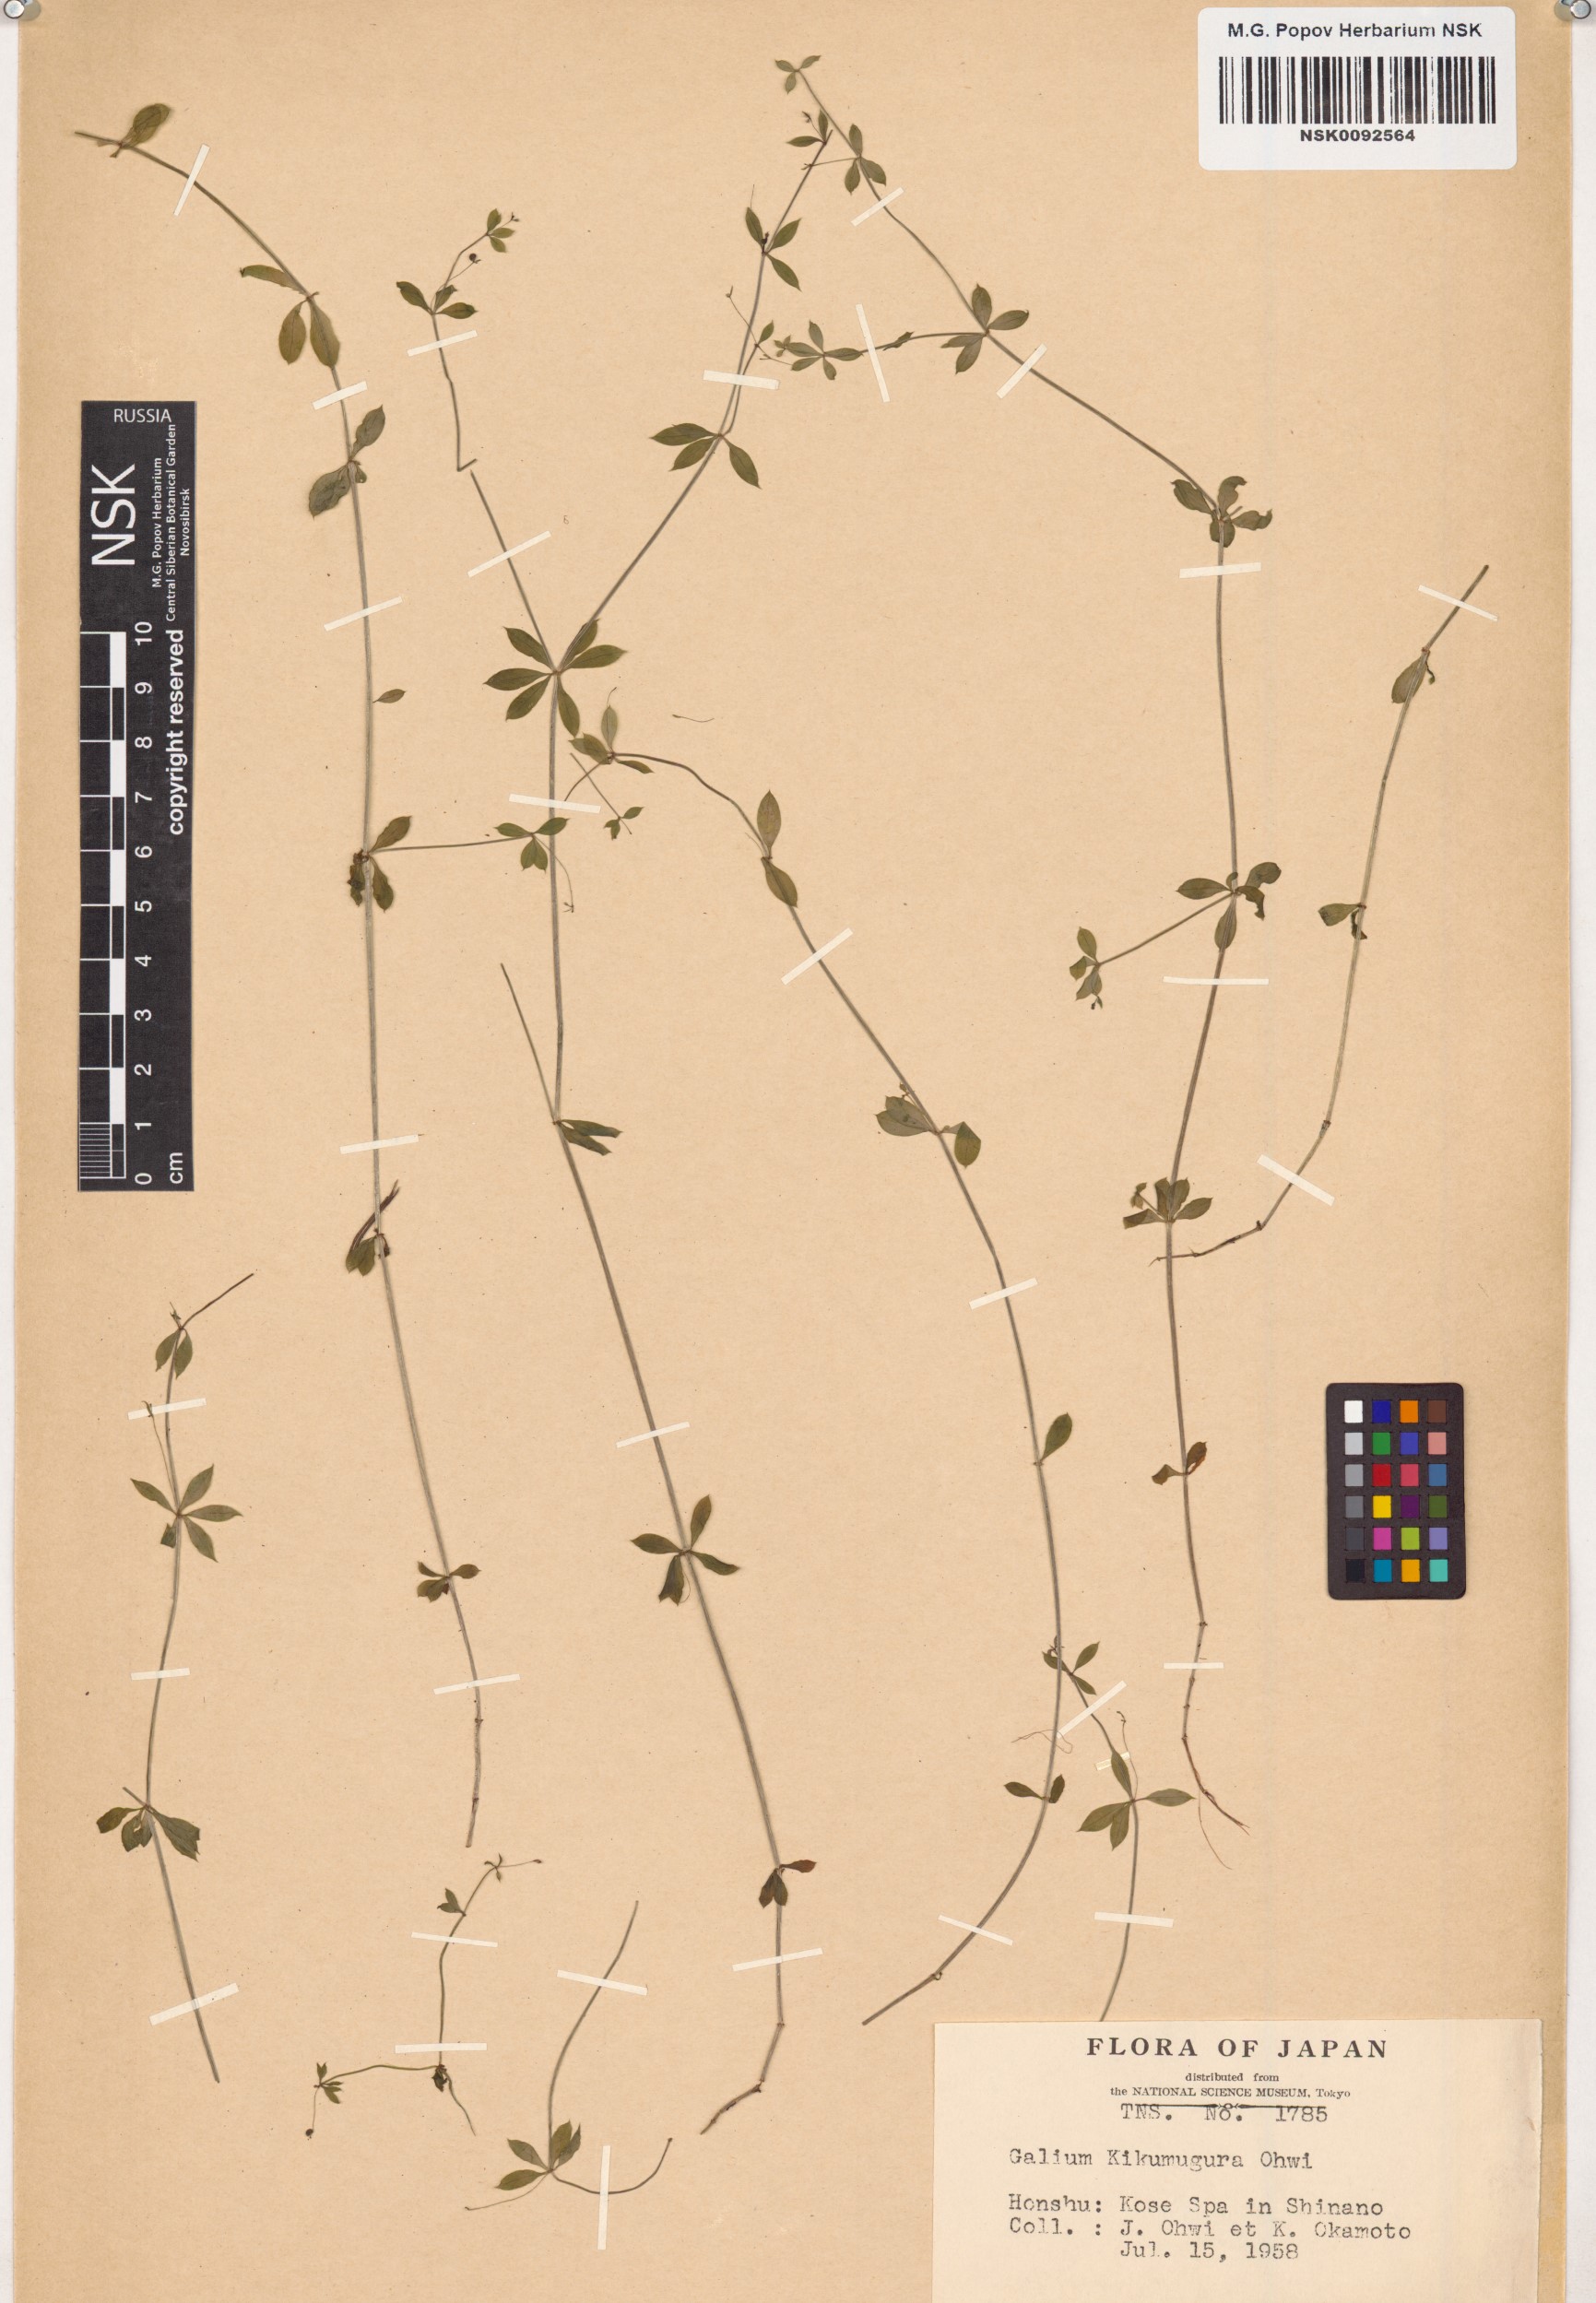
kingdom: Plantae
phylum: Tracheophyta
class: Magnoliopsida
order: Gentianales
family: Rubiaceae
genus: Galium
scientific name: Galium kikumugura
